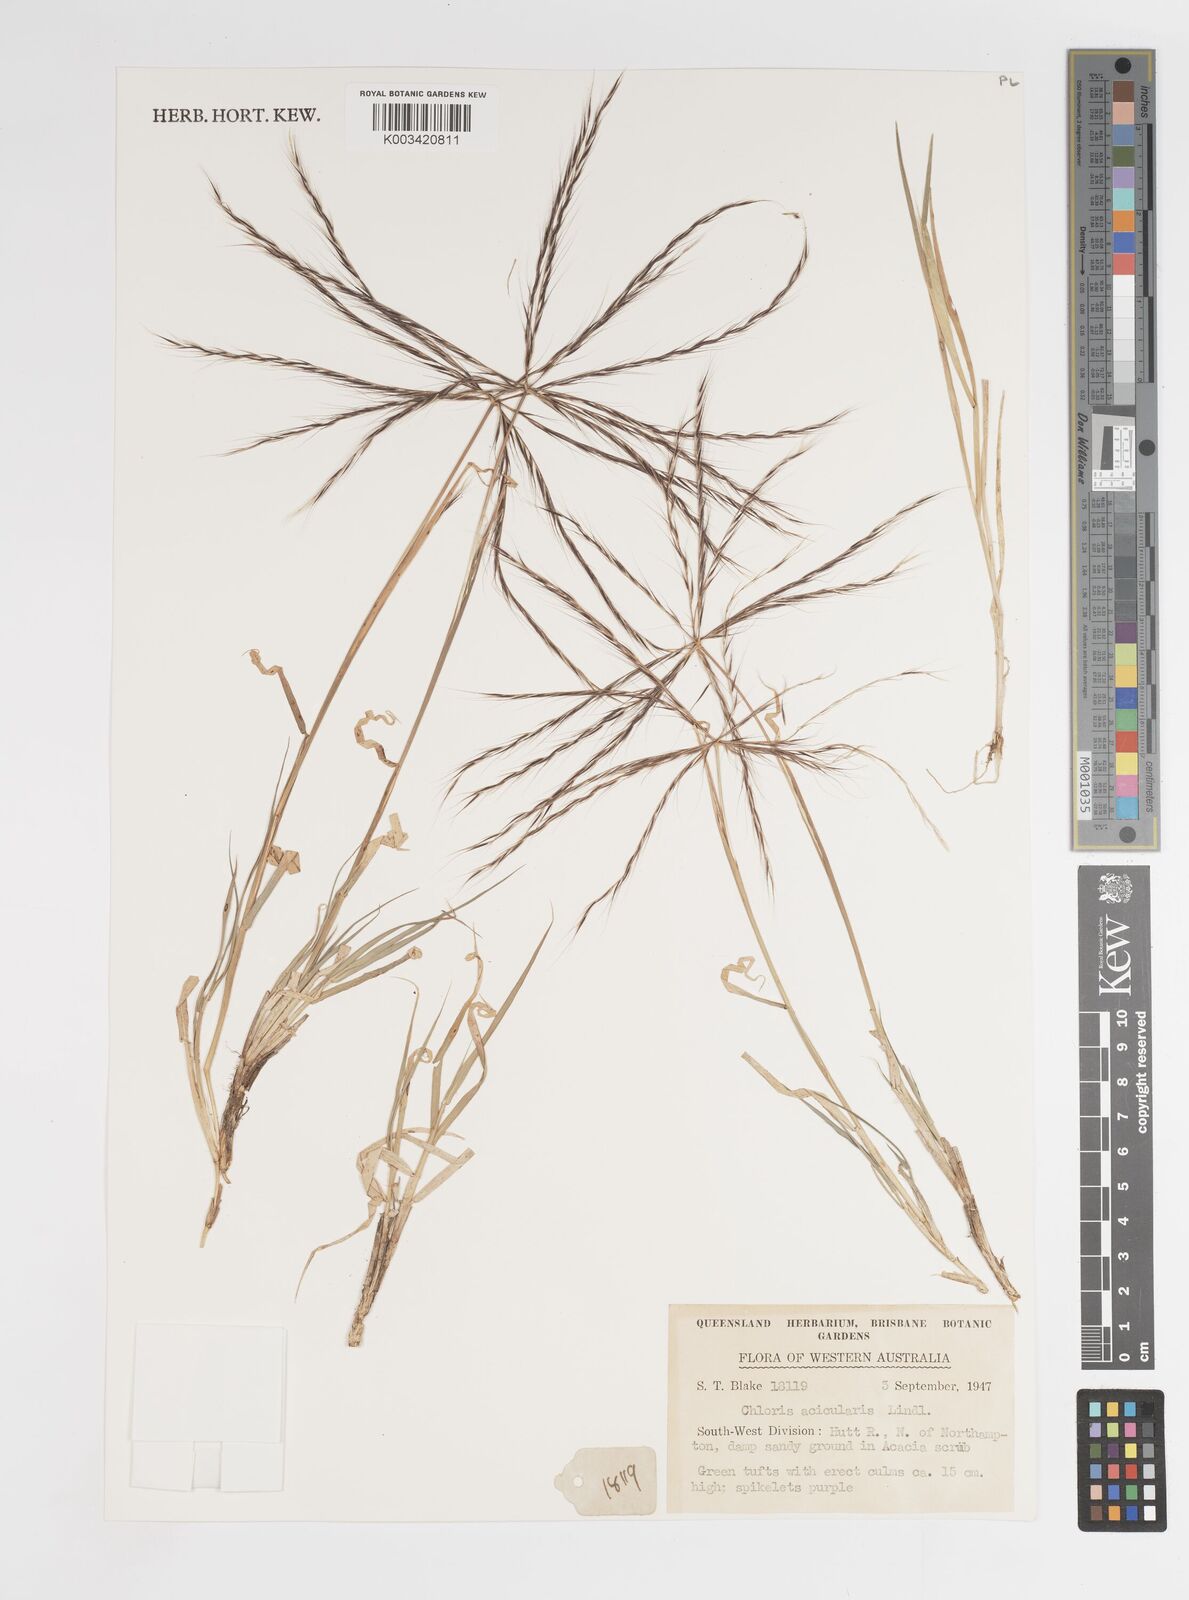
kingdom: Plantae
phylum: Tracheophyta
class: Liliopsida
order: Poales
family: Poaceae
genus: Enteropogon
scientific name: Enteropogon acicularis
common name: Curly windmill grass
